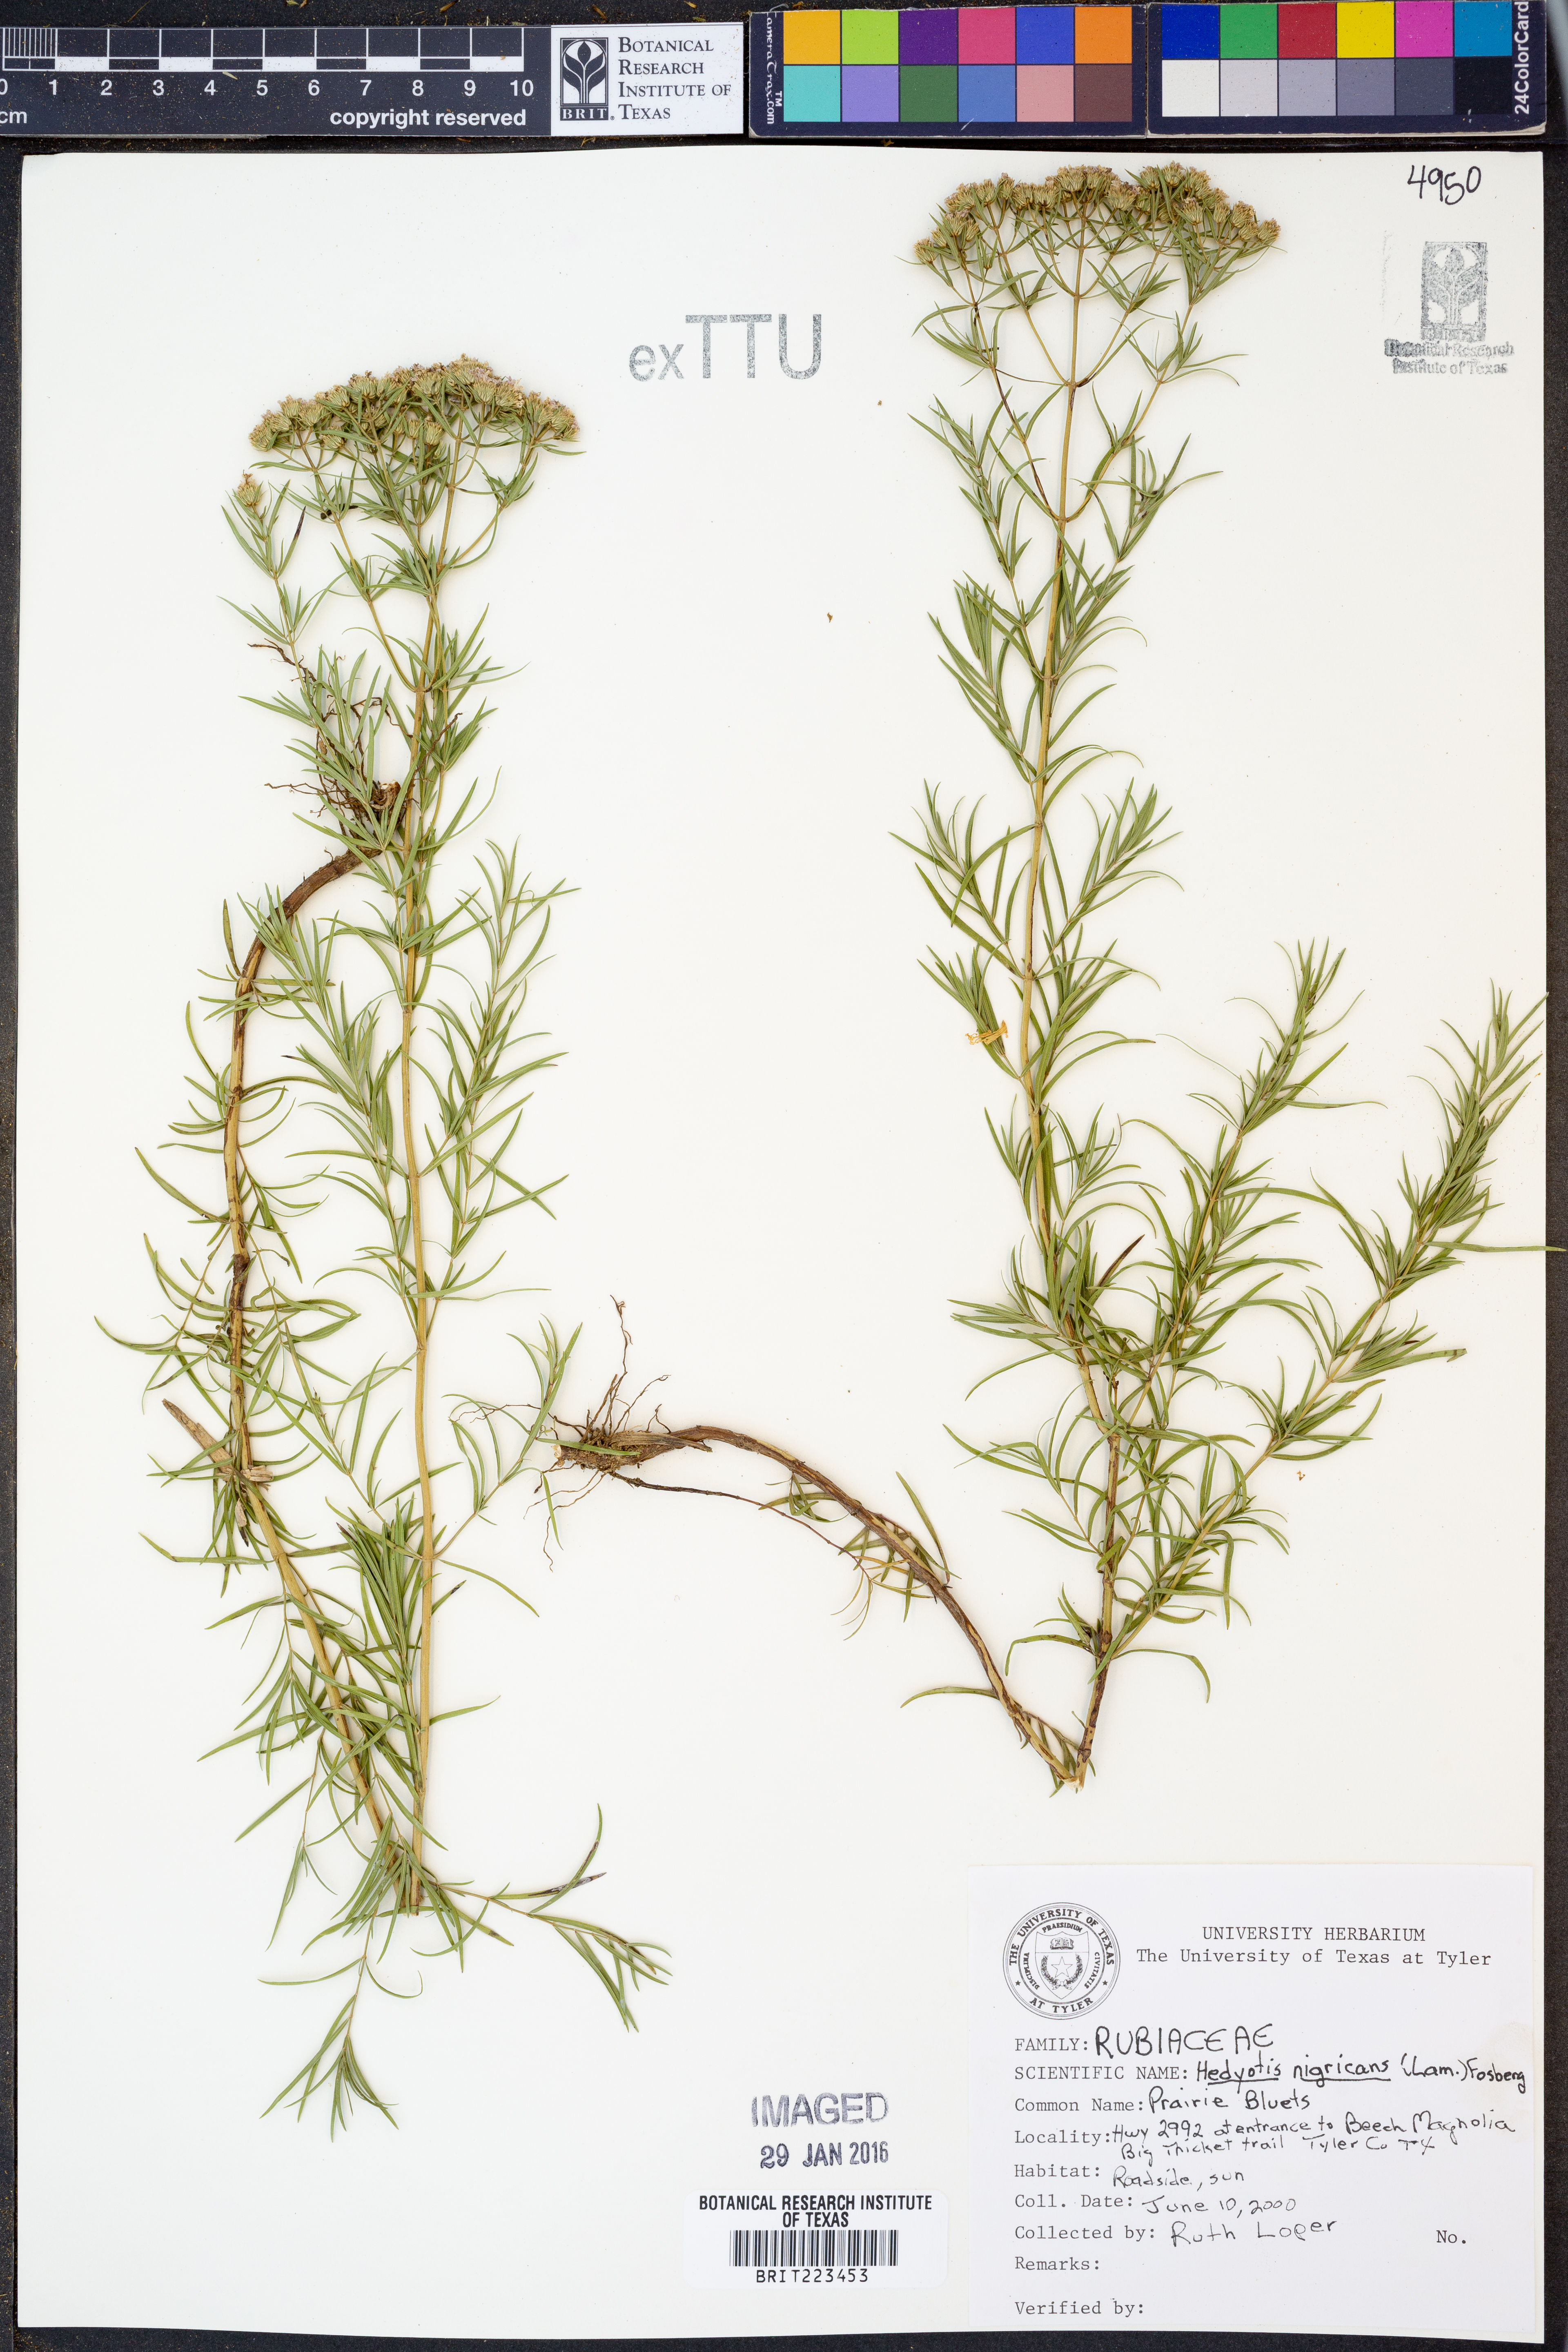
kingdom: Plantae
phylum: Tracheophyta
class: Magnoliopsida
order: Gentianales
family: Rubiaceae
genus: Stenaria
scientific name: Stenaria nigricans
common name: Diamondflowers
